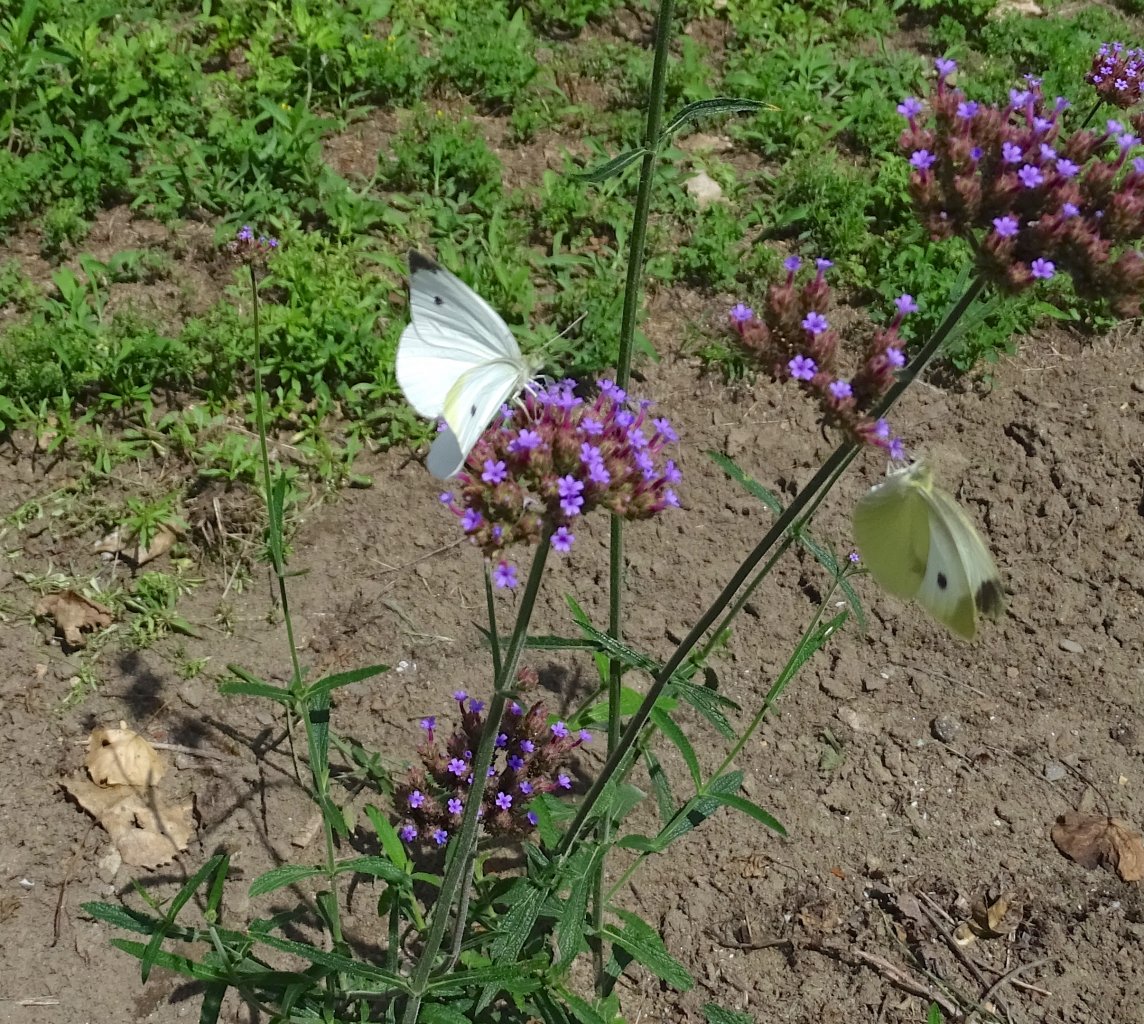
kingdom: Animalia
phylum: Arthropoda
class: Insecta
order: Lepidoptera
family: Pieridae
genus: Pieris
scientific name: Pieris rapae
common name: Cabbage White
